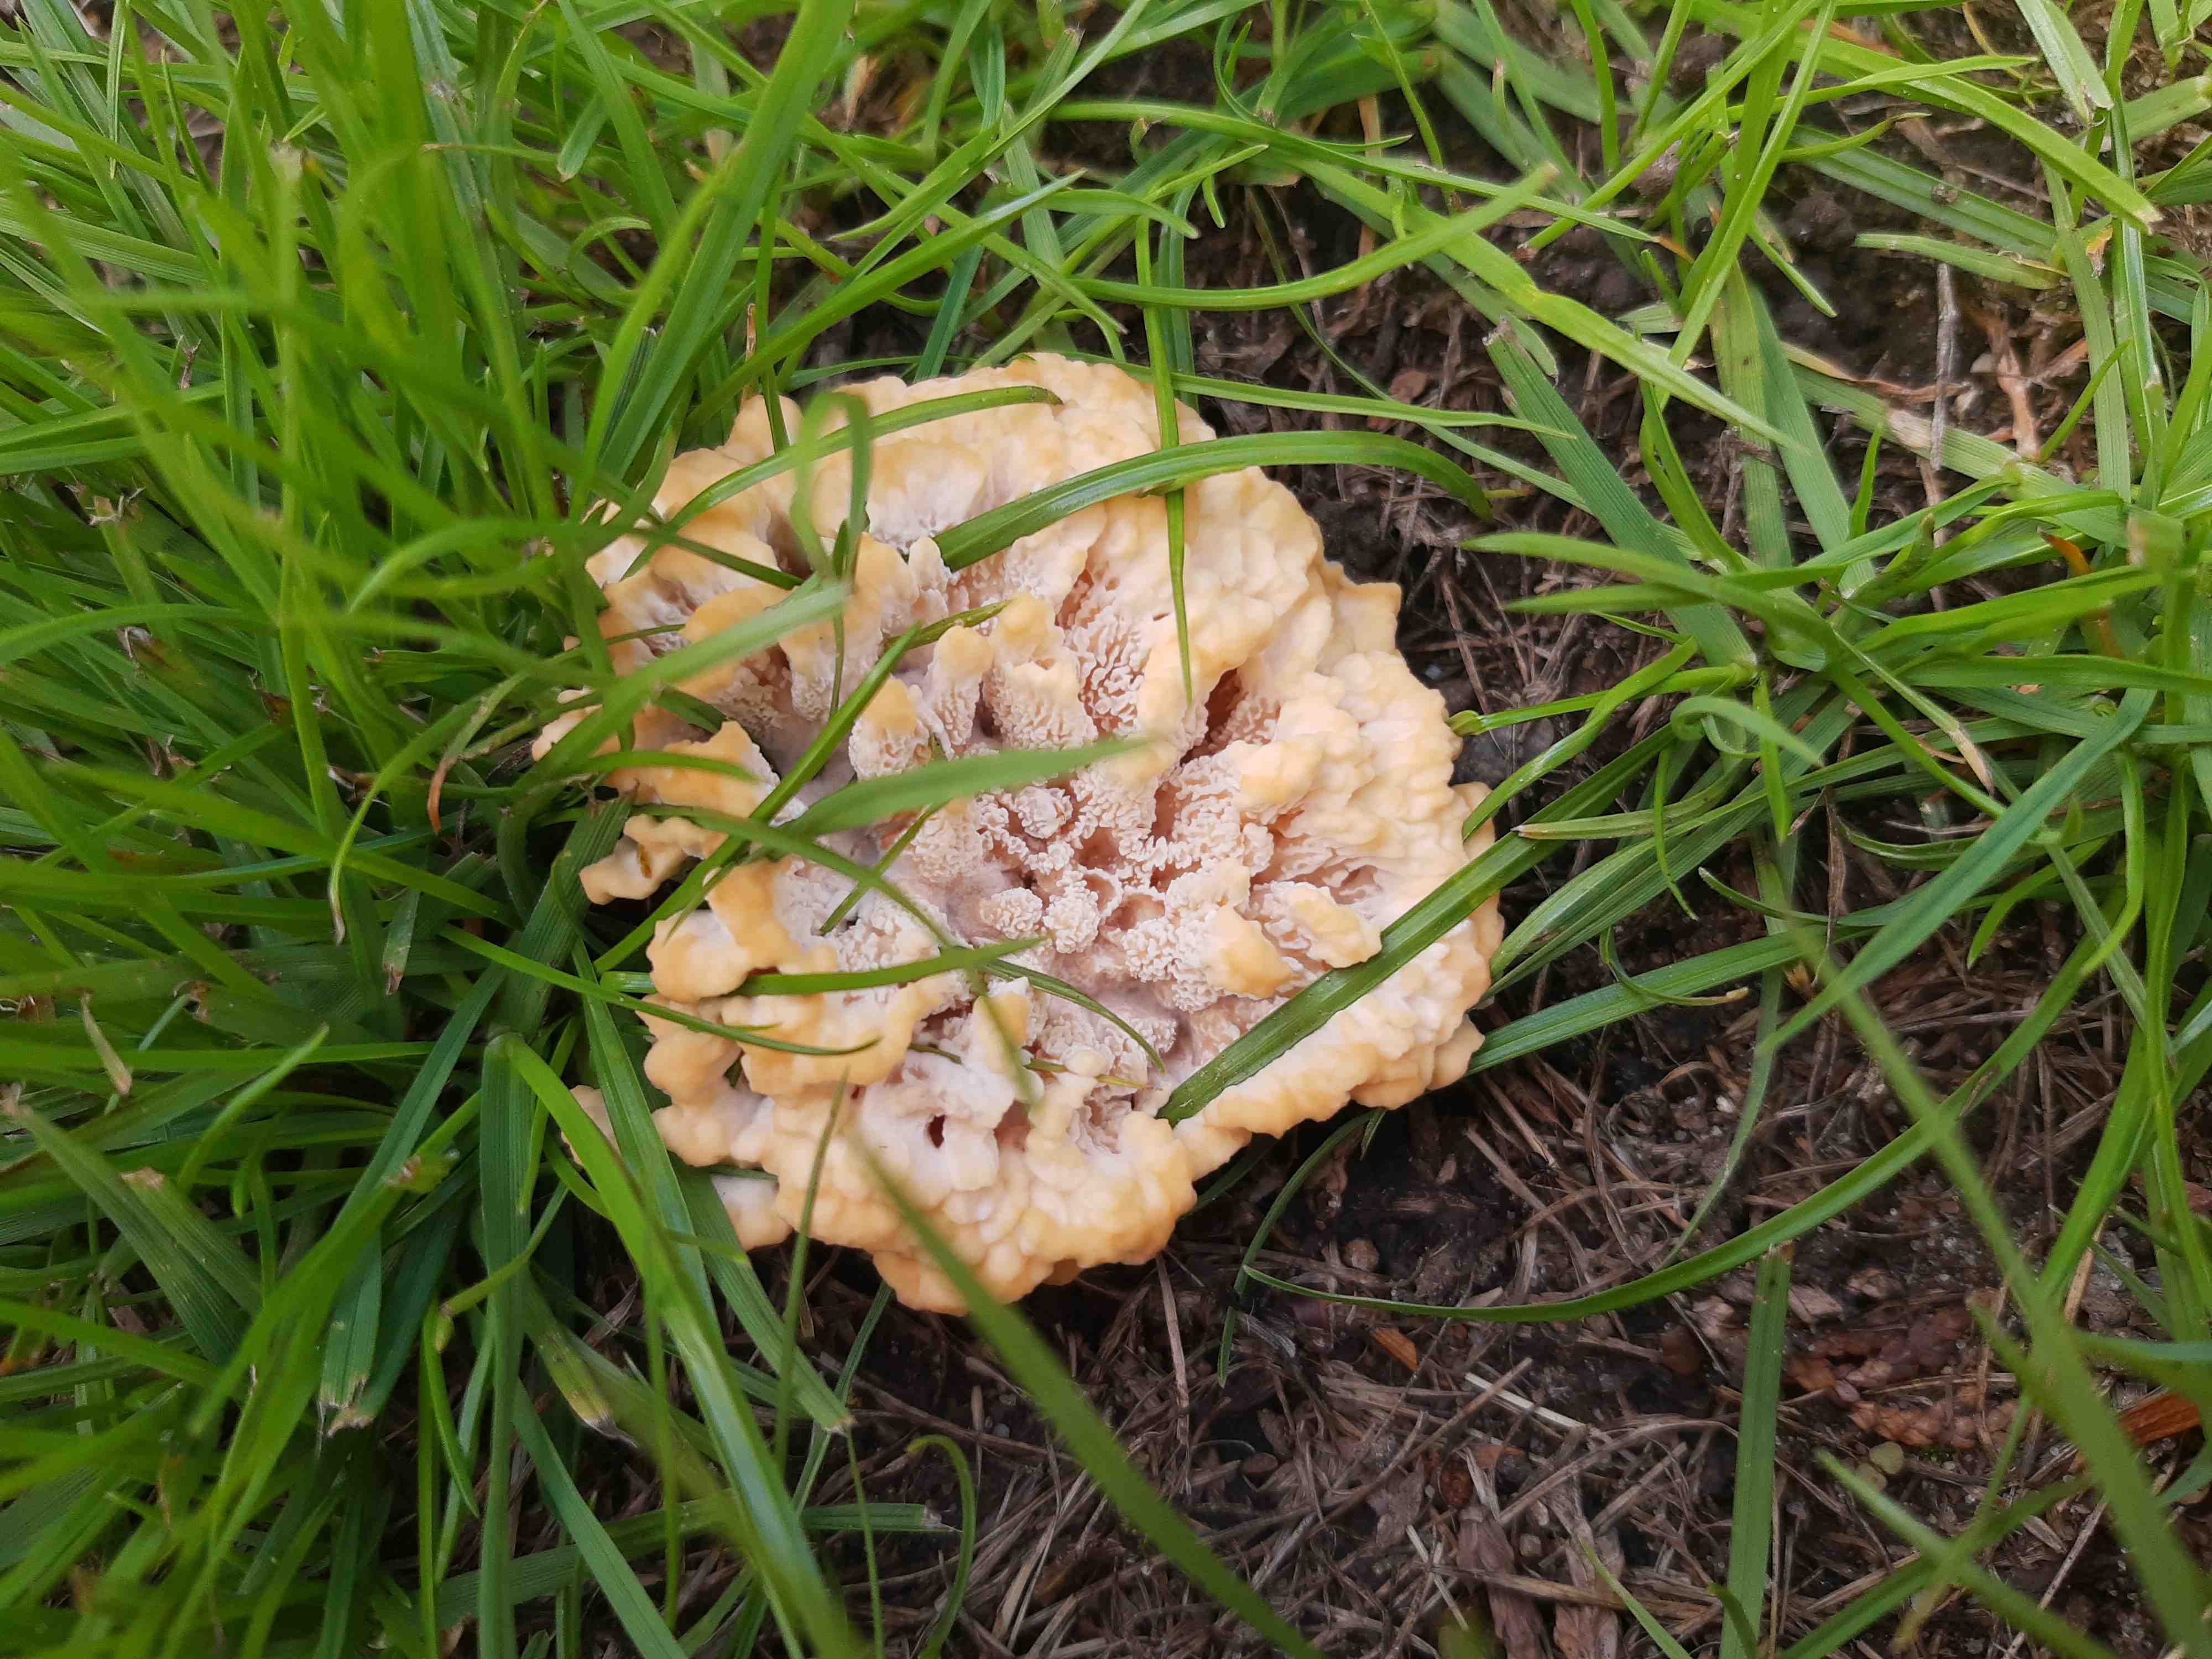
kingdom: Fungi
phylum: Basidiomycota
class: Agaricomycetes
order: Polyporales
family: Podoscyphaceae
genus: Abortiporus
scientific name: Abortiporus biennis
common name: rødmende pjalteporesvamp
